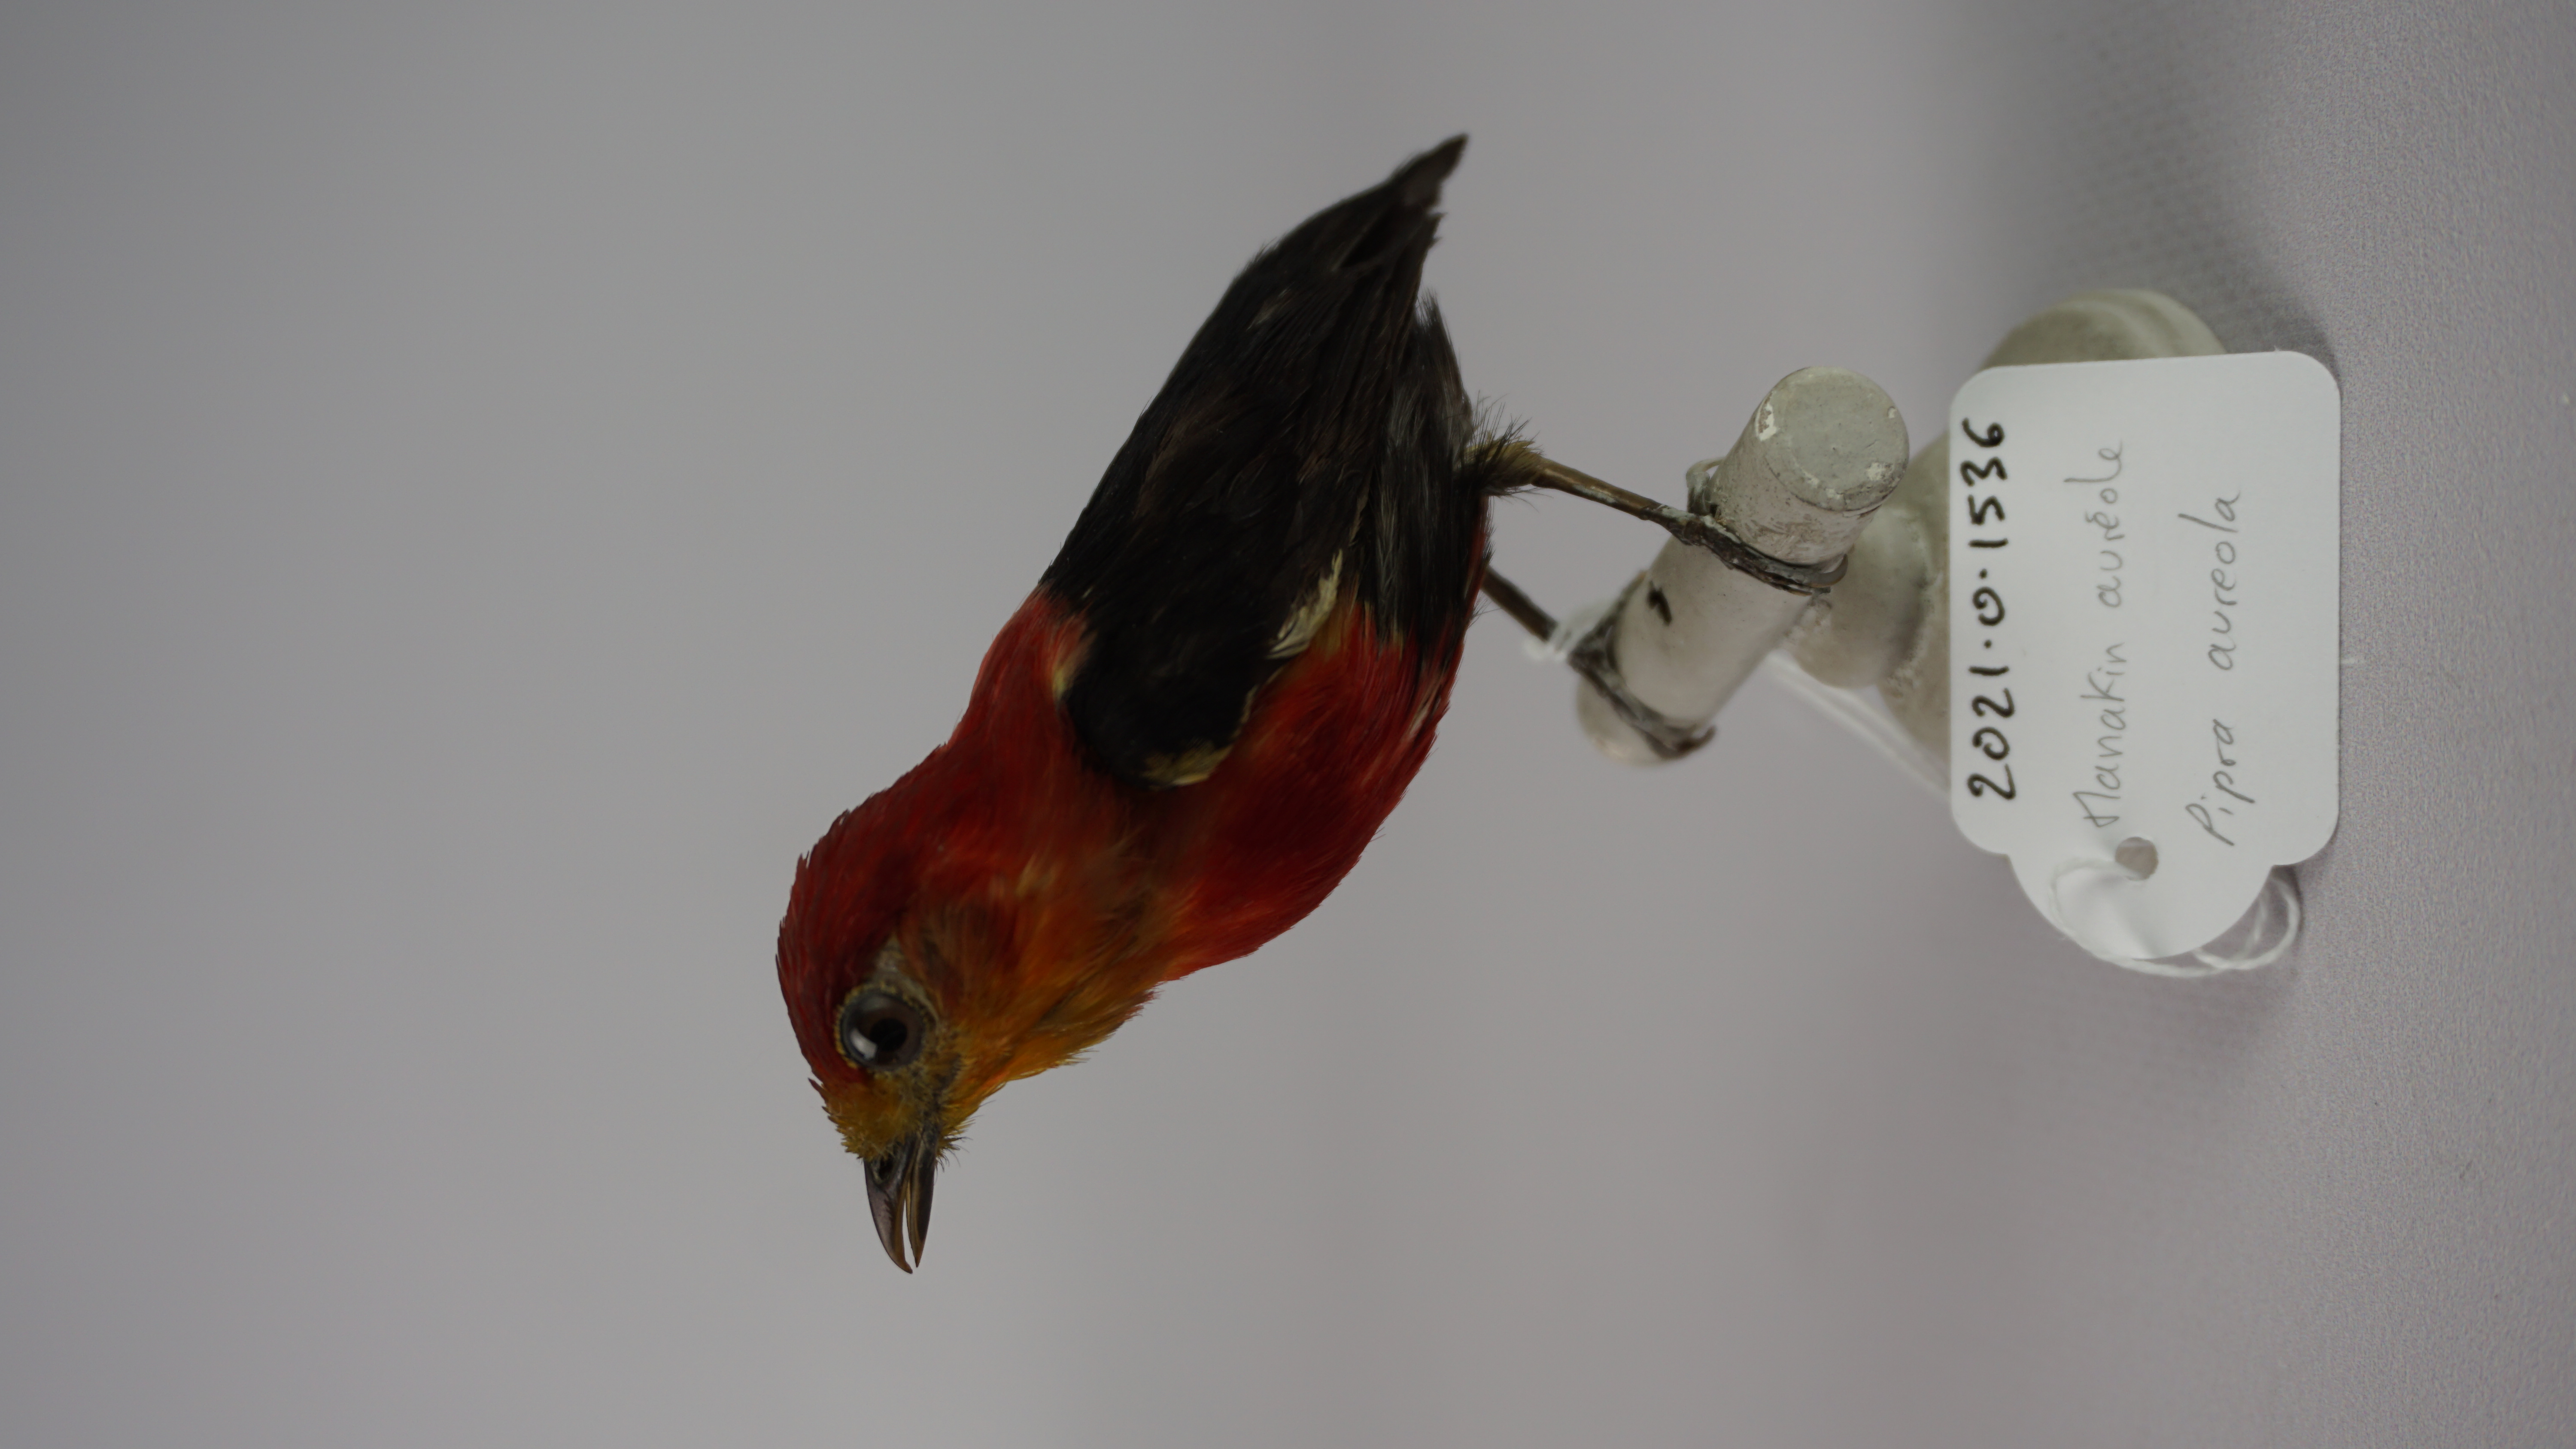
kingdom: Animalia
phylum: Chordata
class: Aves
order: Passeriformes
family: Pipridae
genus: Pipra
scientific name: Pipra aureola
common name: Crimson-hooded manakin
